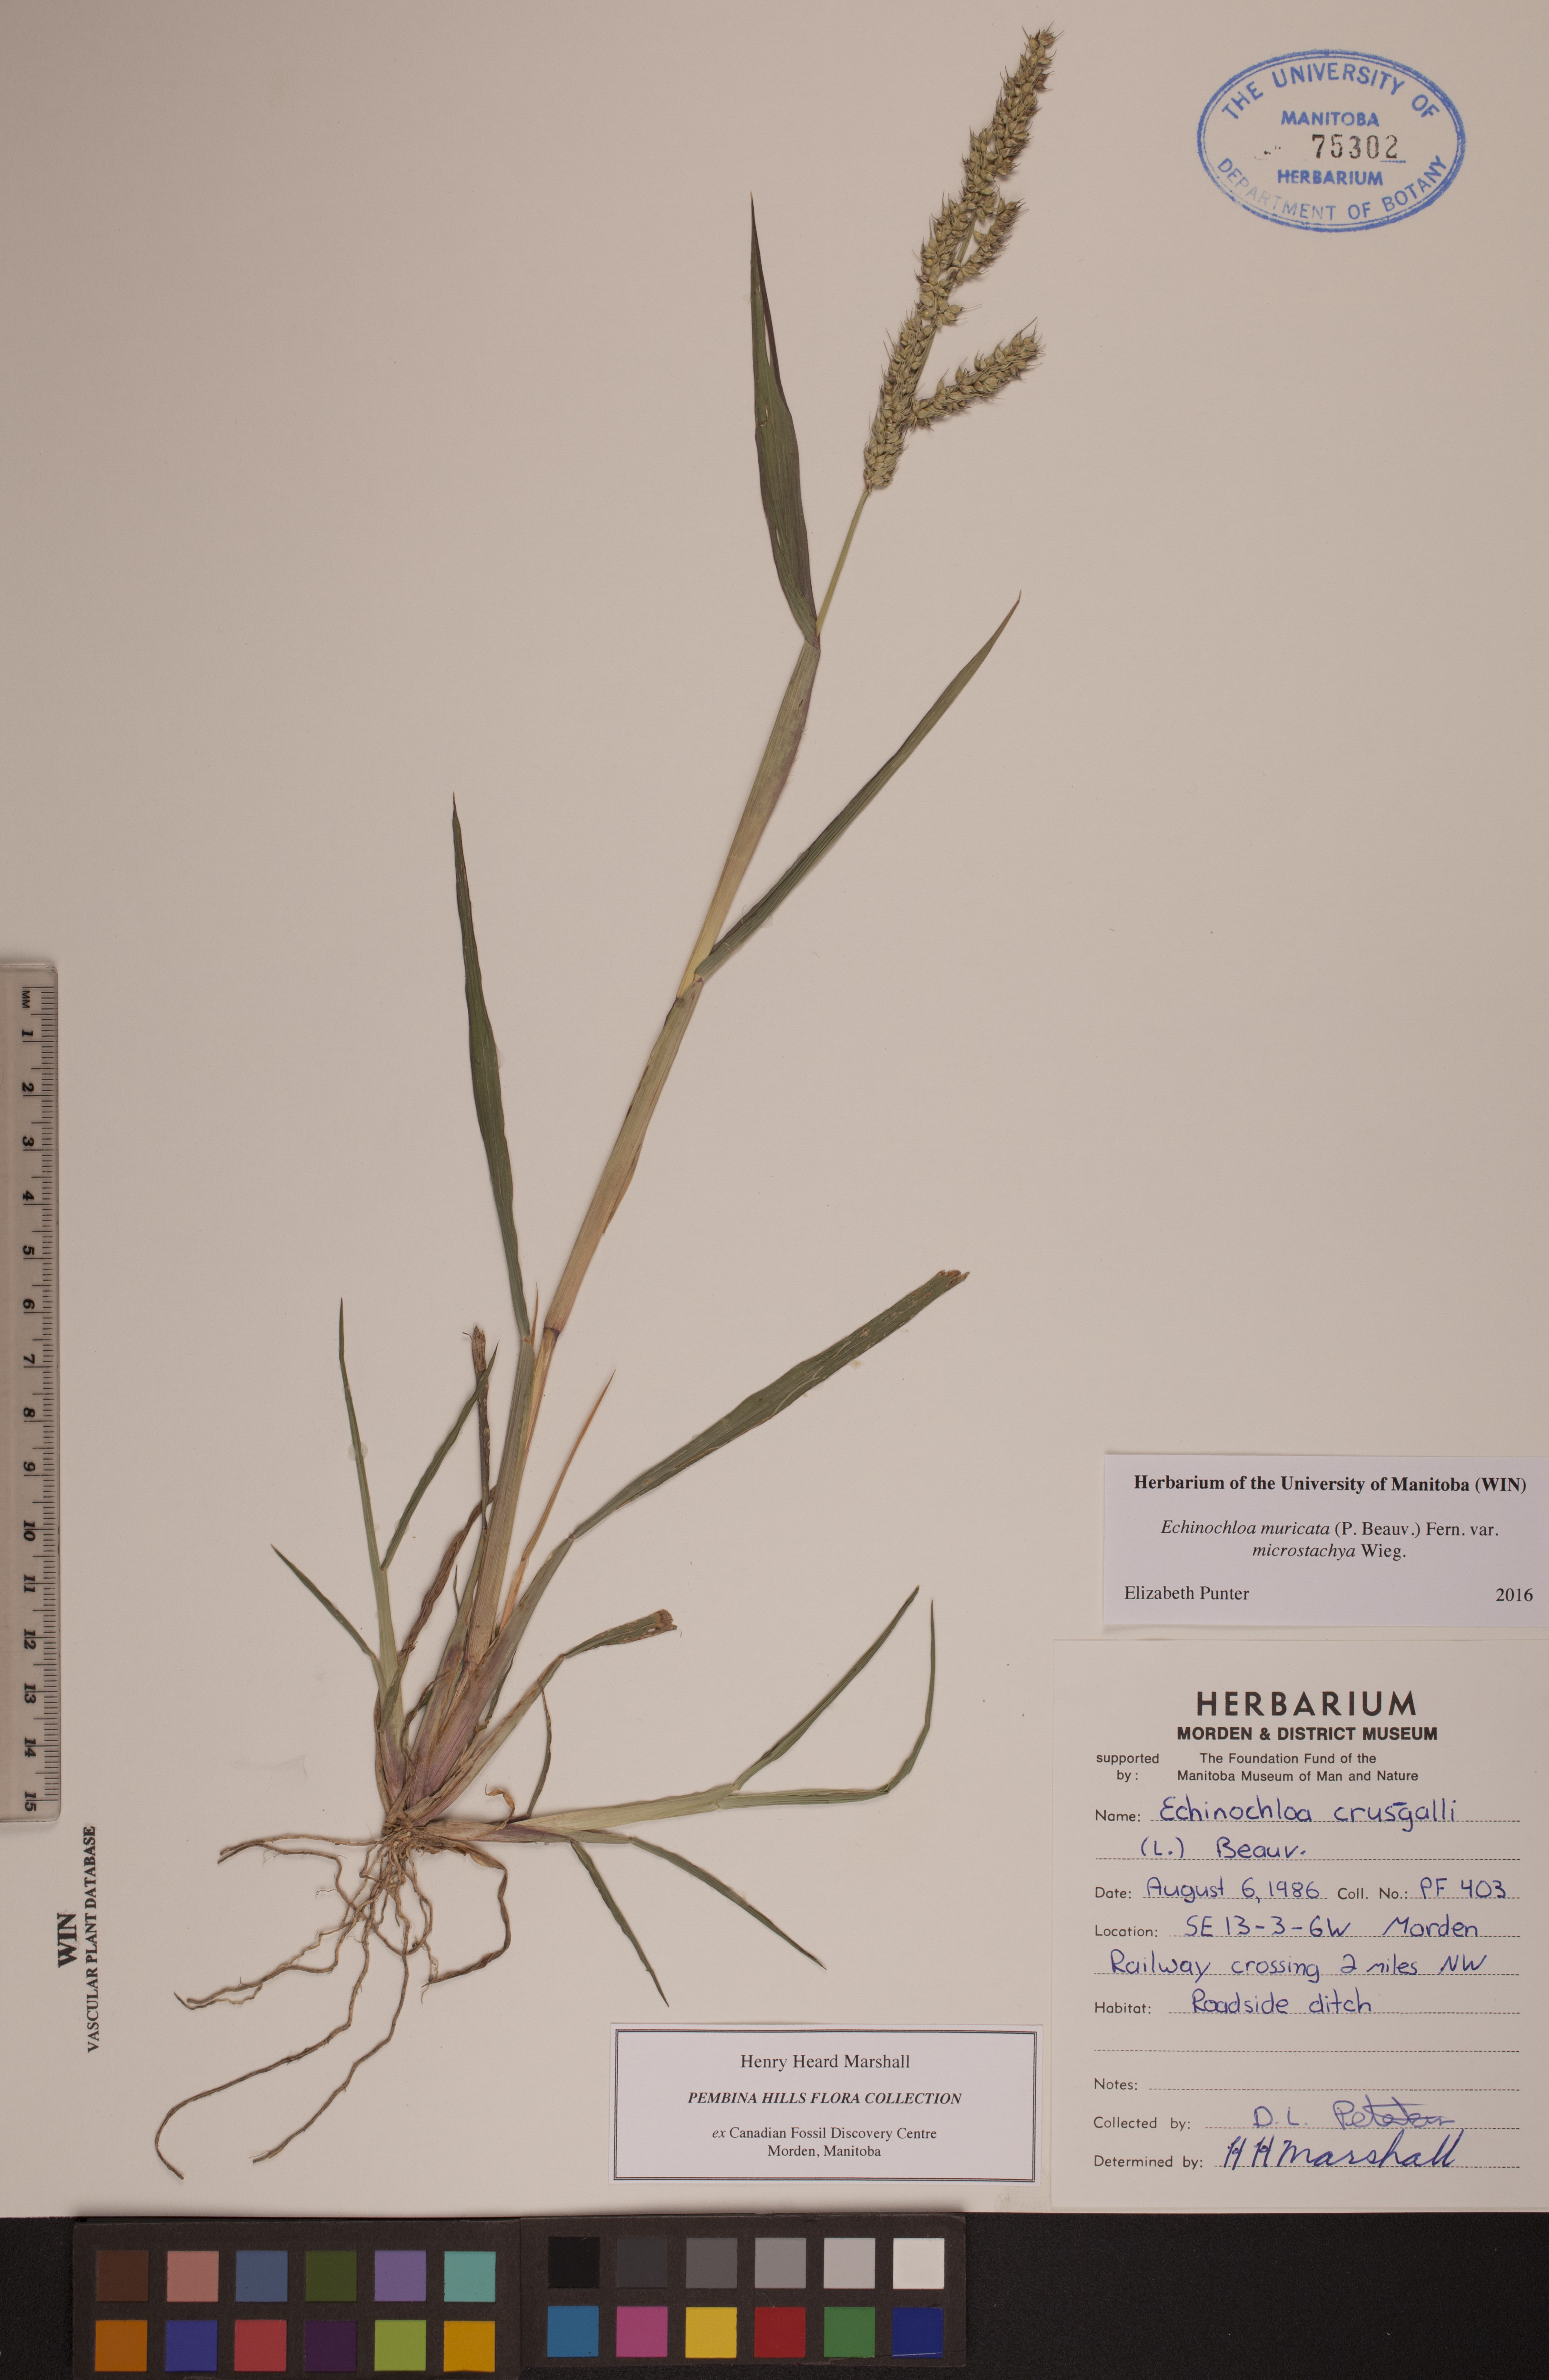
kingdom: Plantae
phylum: Tracheophyta
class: Liliopsida
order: Poales
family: Poaceae
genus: Echinochloa
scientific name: Echinochloa muricata
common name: American barnyard grass
